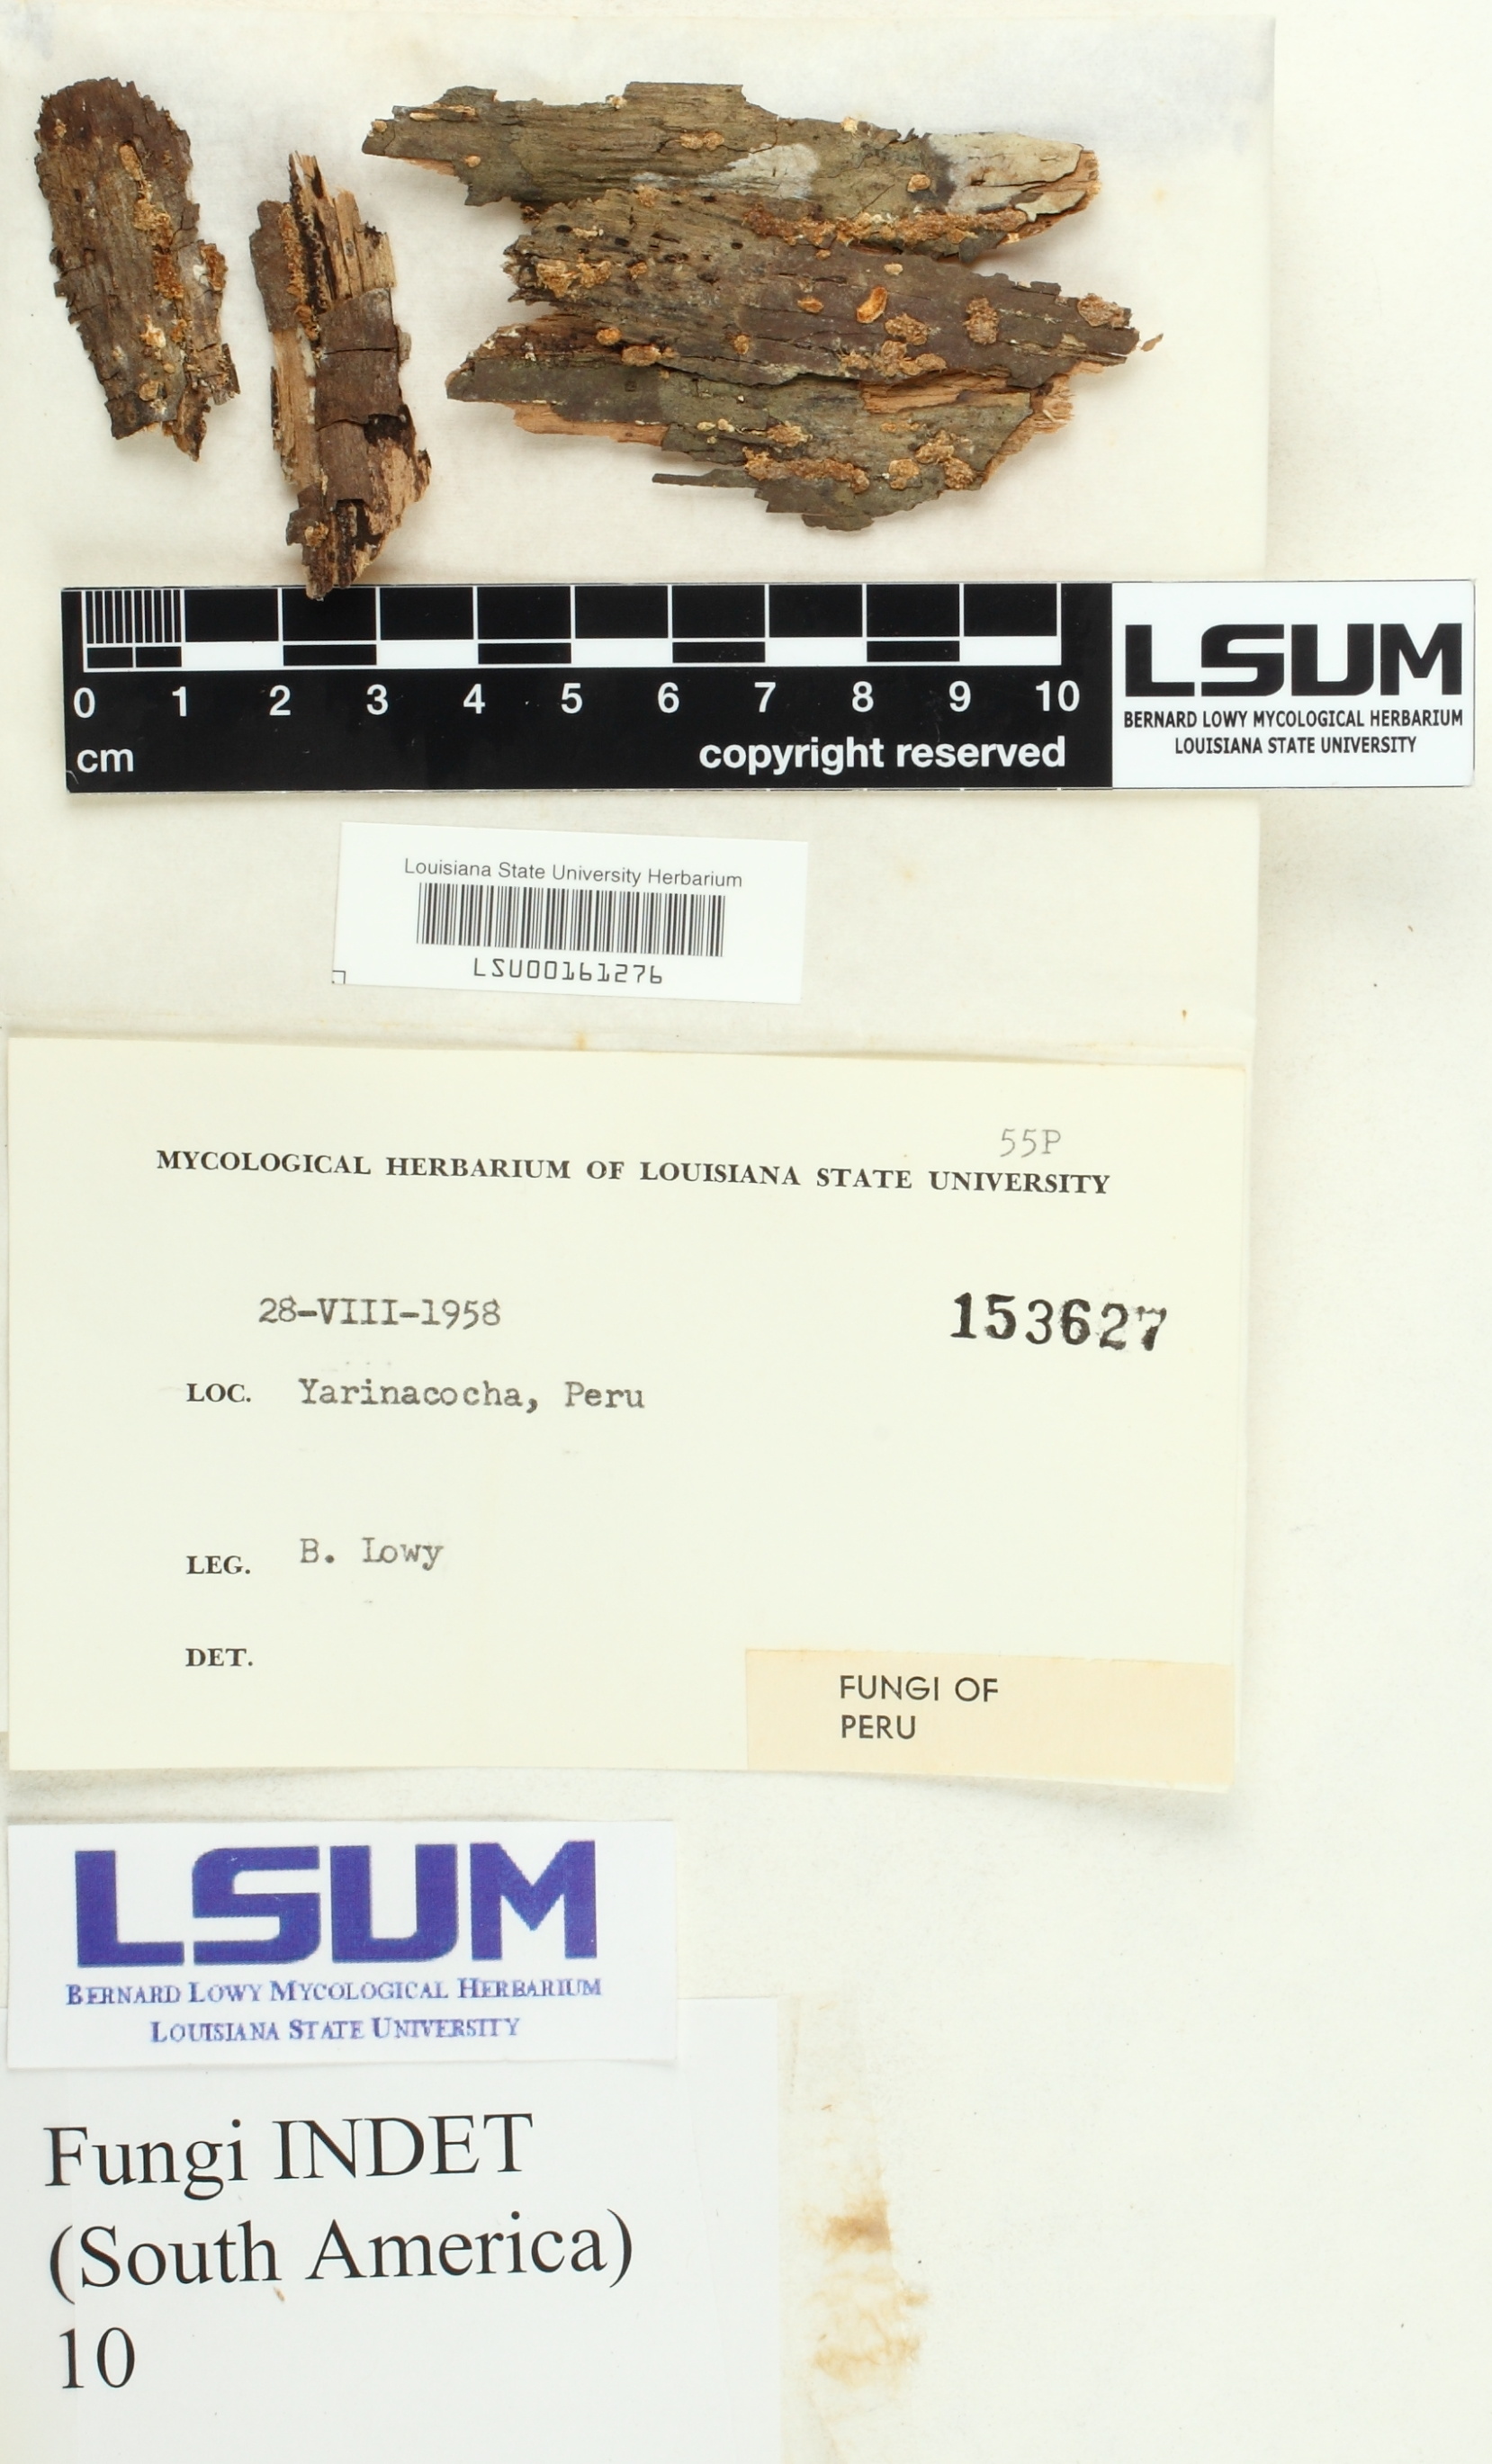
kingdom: Fungi
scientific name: Fungi
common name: Fungi
